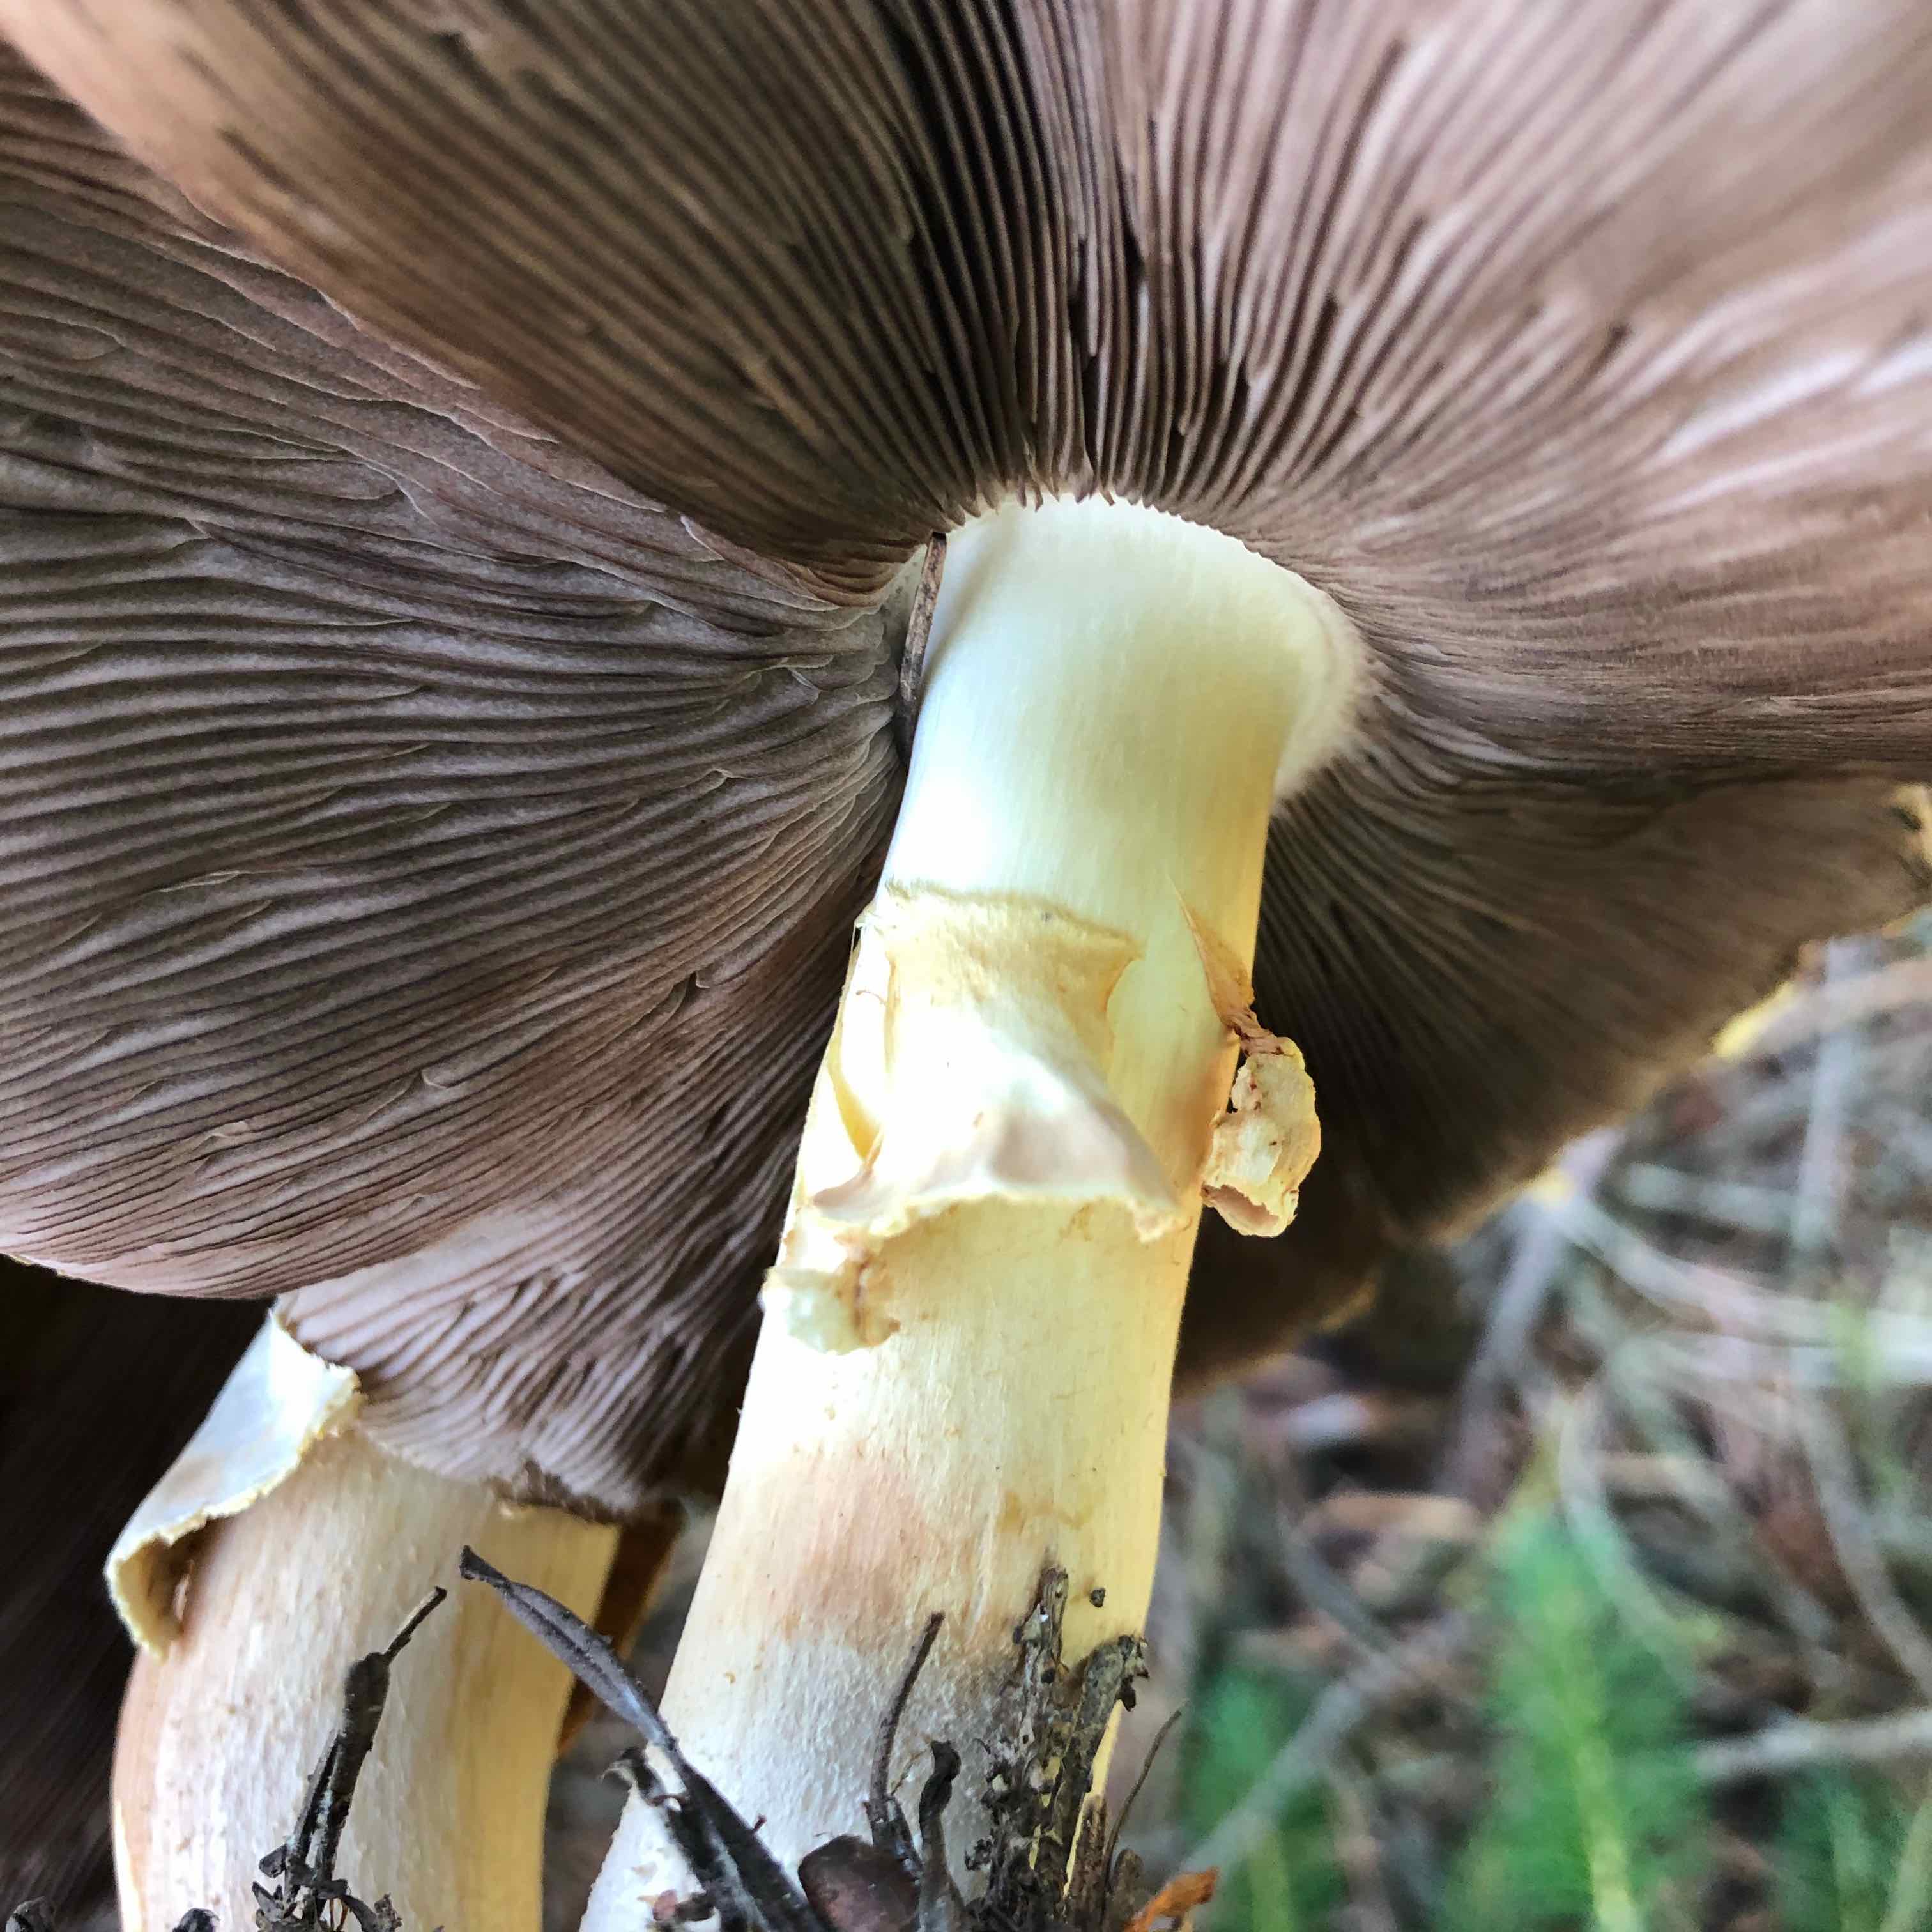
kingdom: Fungi
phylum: Basidiomycota
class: Agaricomycetes
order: Agaricales
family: Agaricaceae
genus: Agaricus
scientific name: Agaricus
